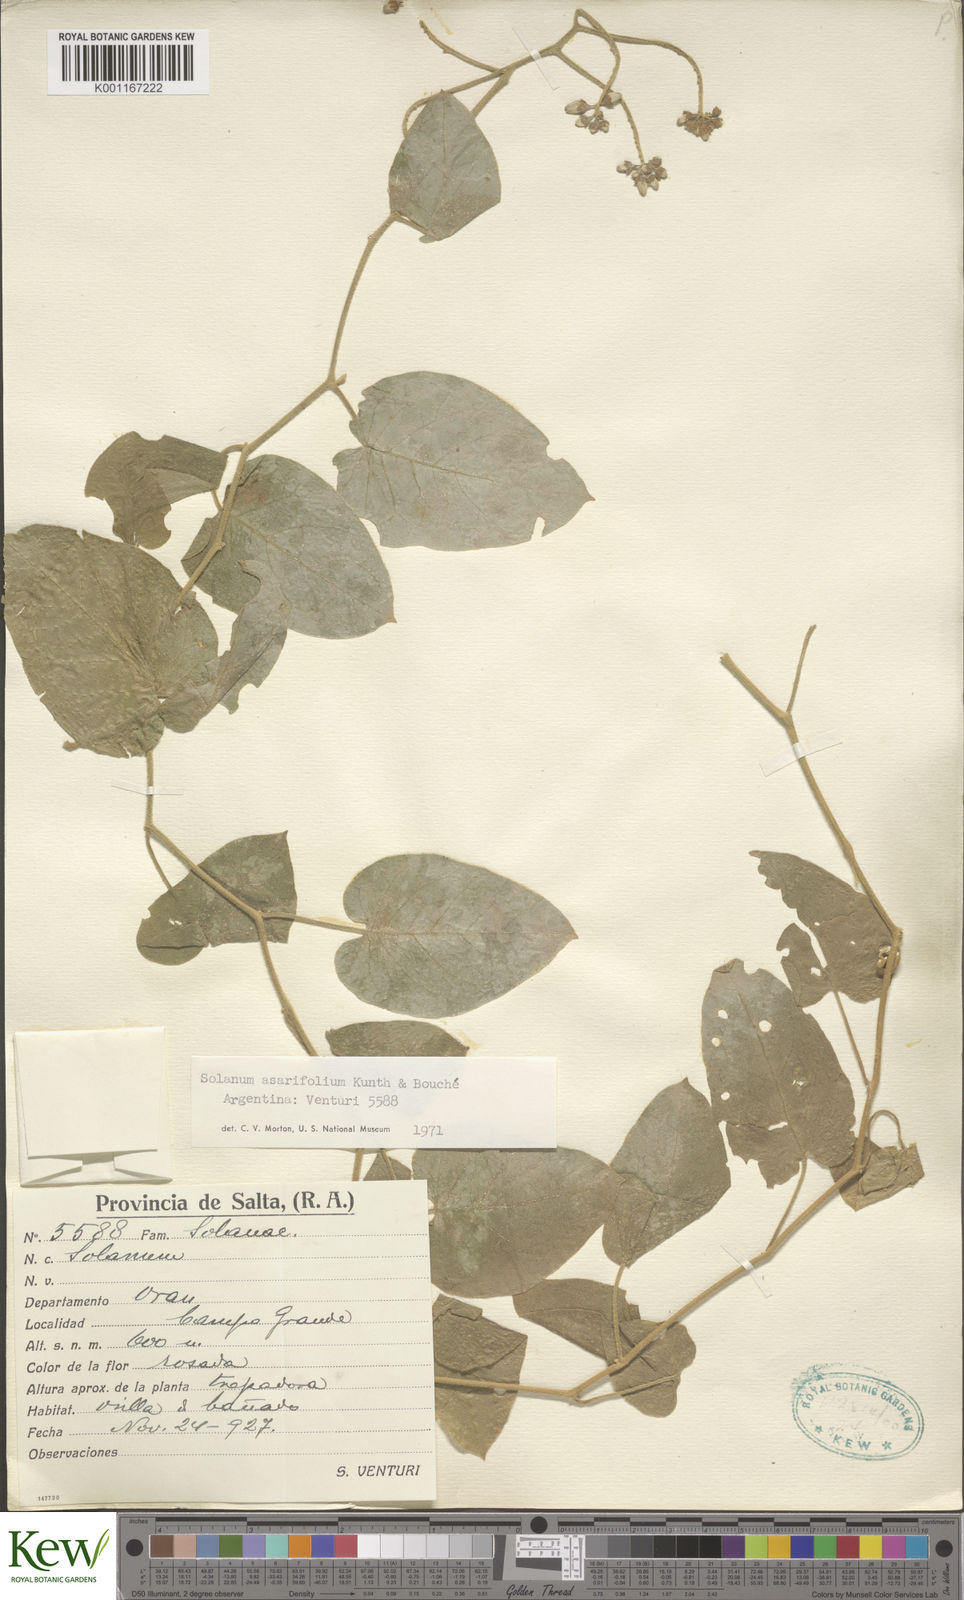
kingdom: Plantae
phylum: Tracheophyta
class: Magnoliopsida
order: Solanales
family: Solanaceae
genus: Solanum
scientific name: Solanum
